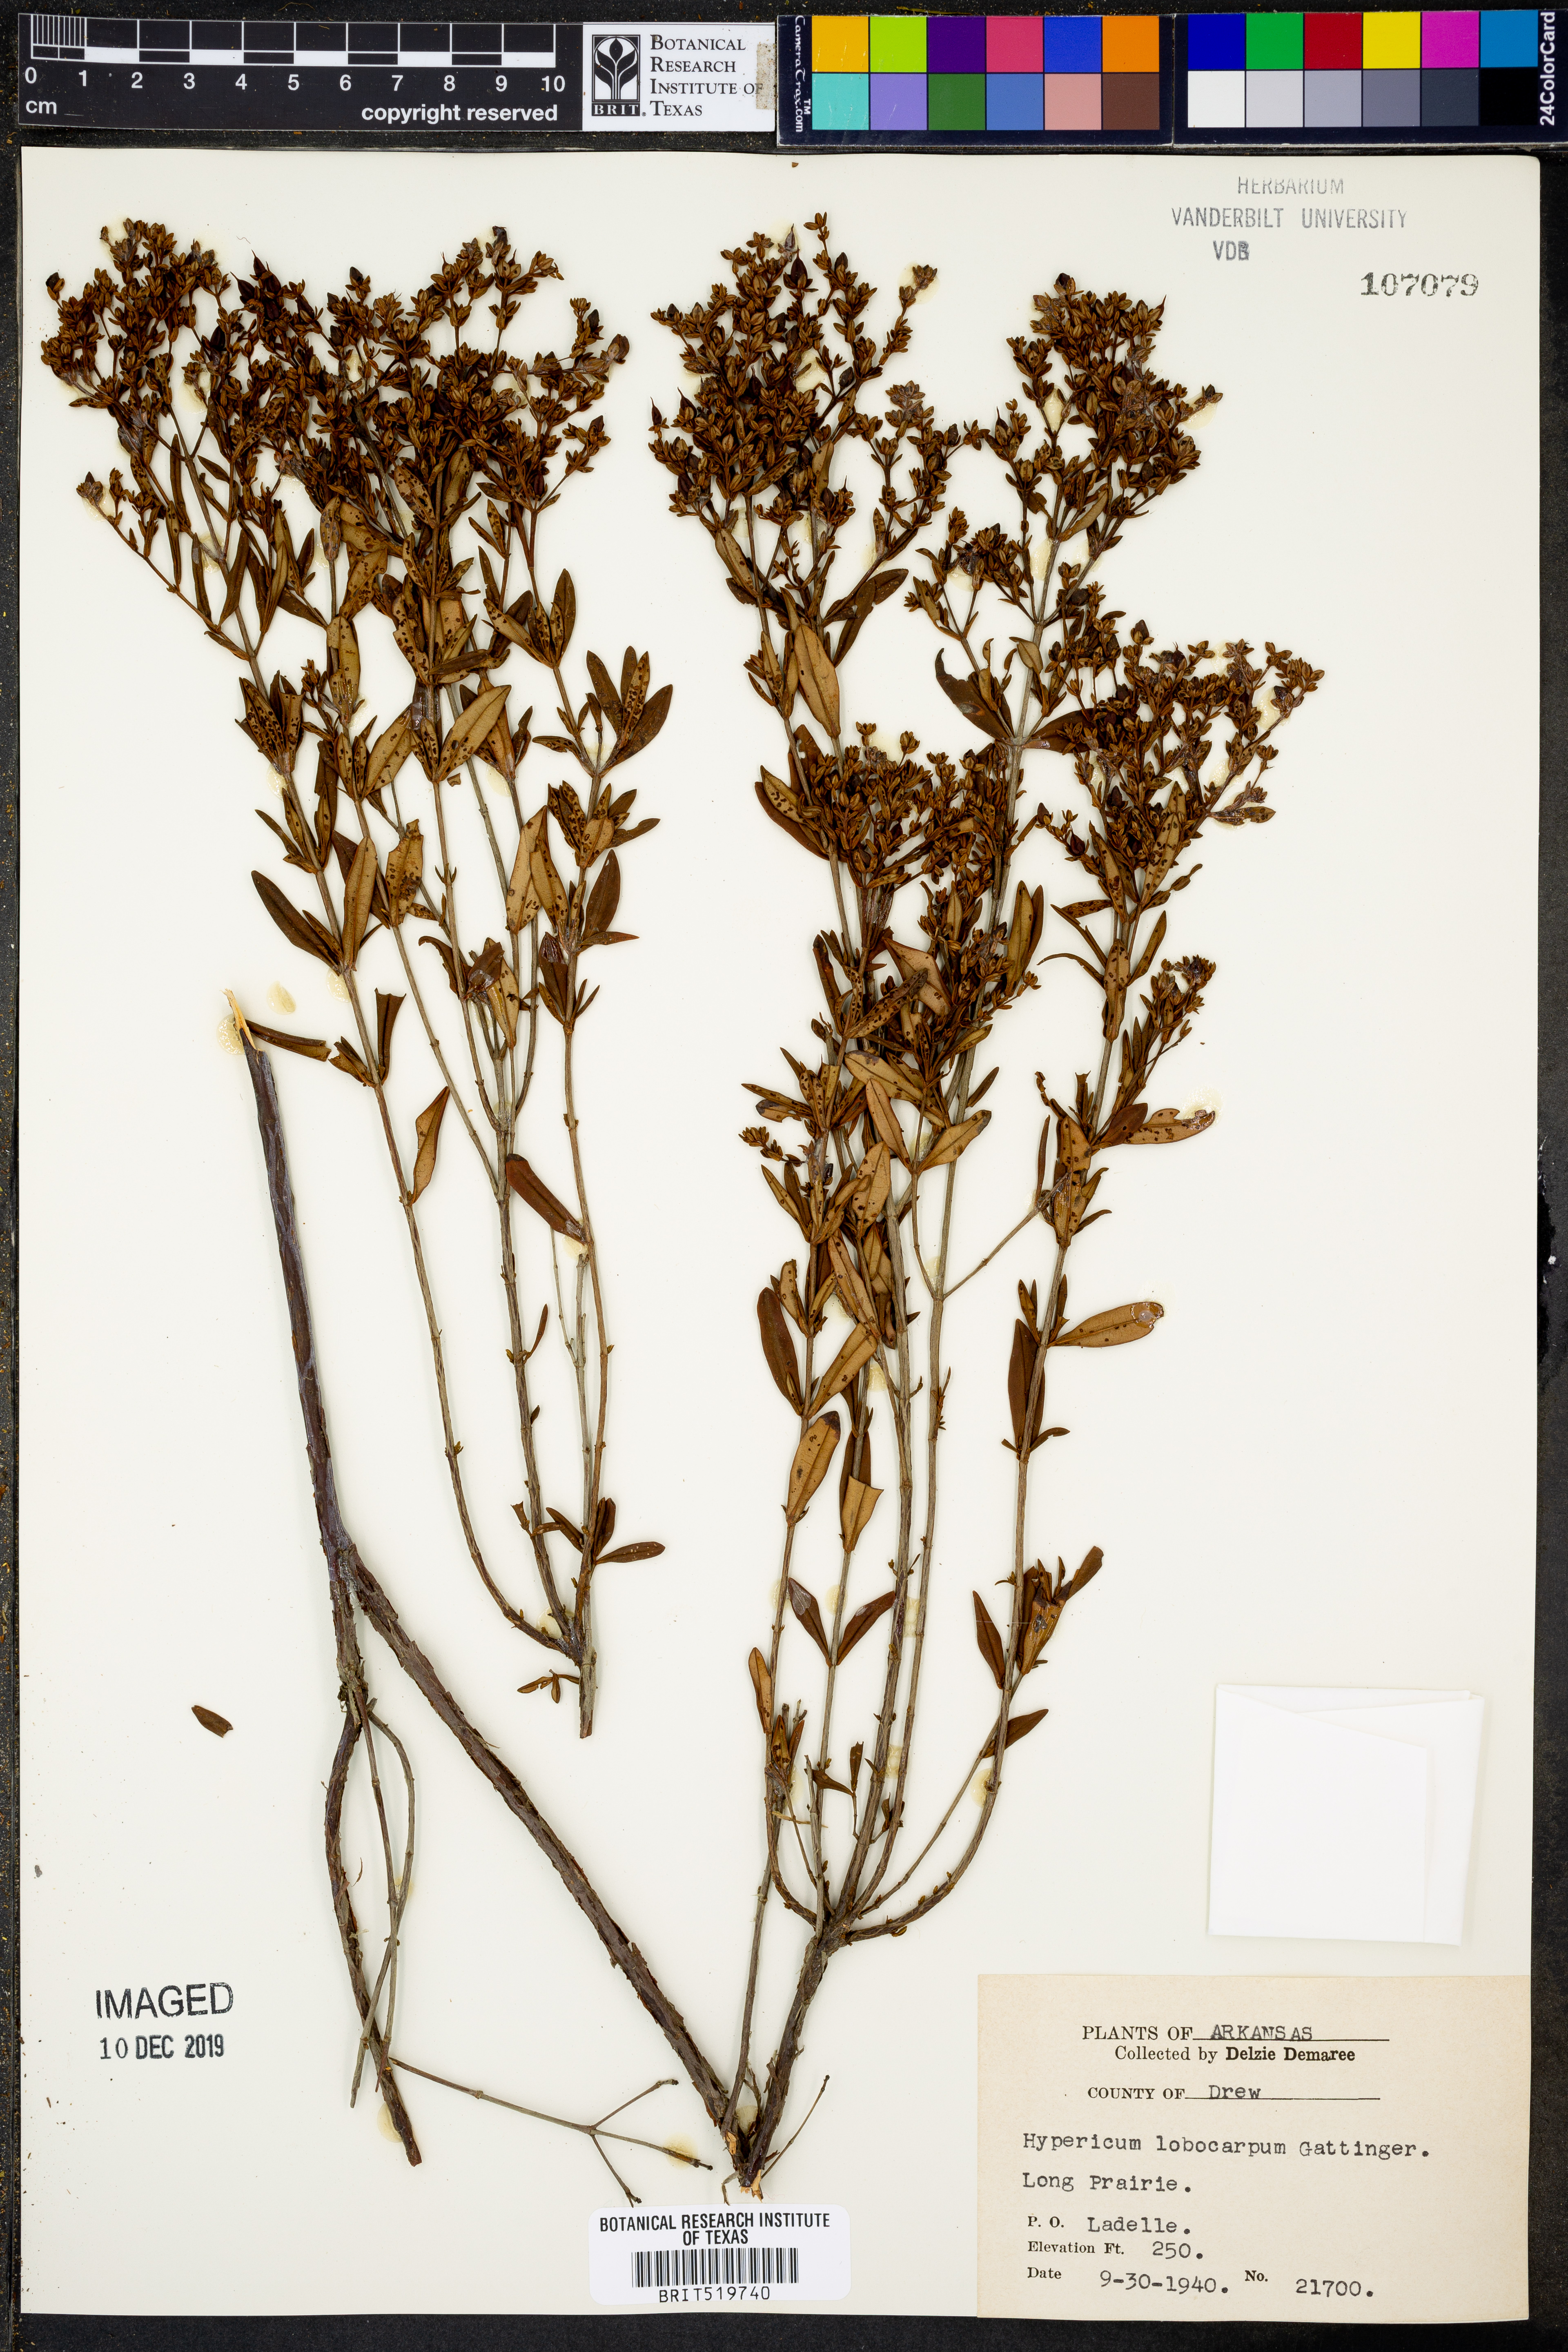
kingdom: Plantae
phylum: Tracheophyta
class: Magnoliopsida
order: Malpighiales
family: Hypericaceae
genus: Hypericum
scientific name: Hypericum lobocarpum
